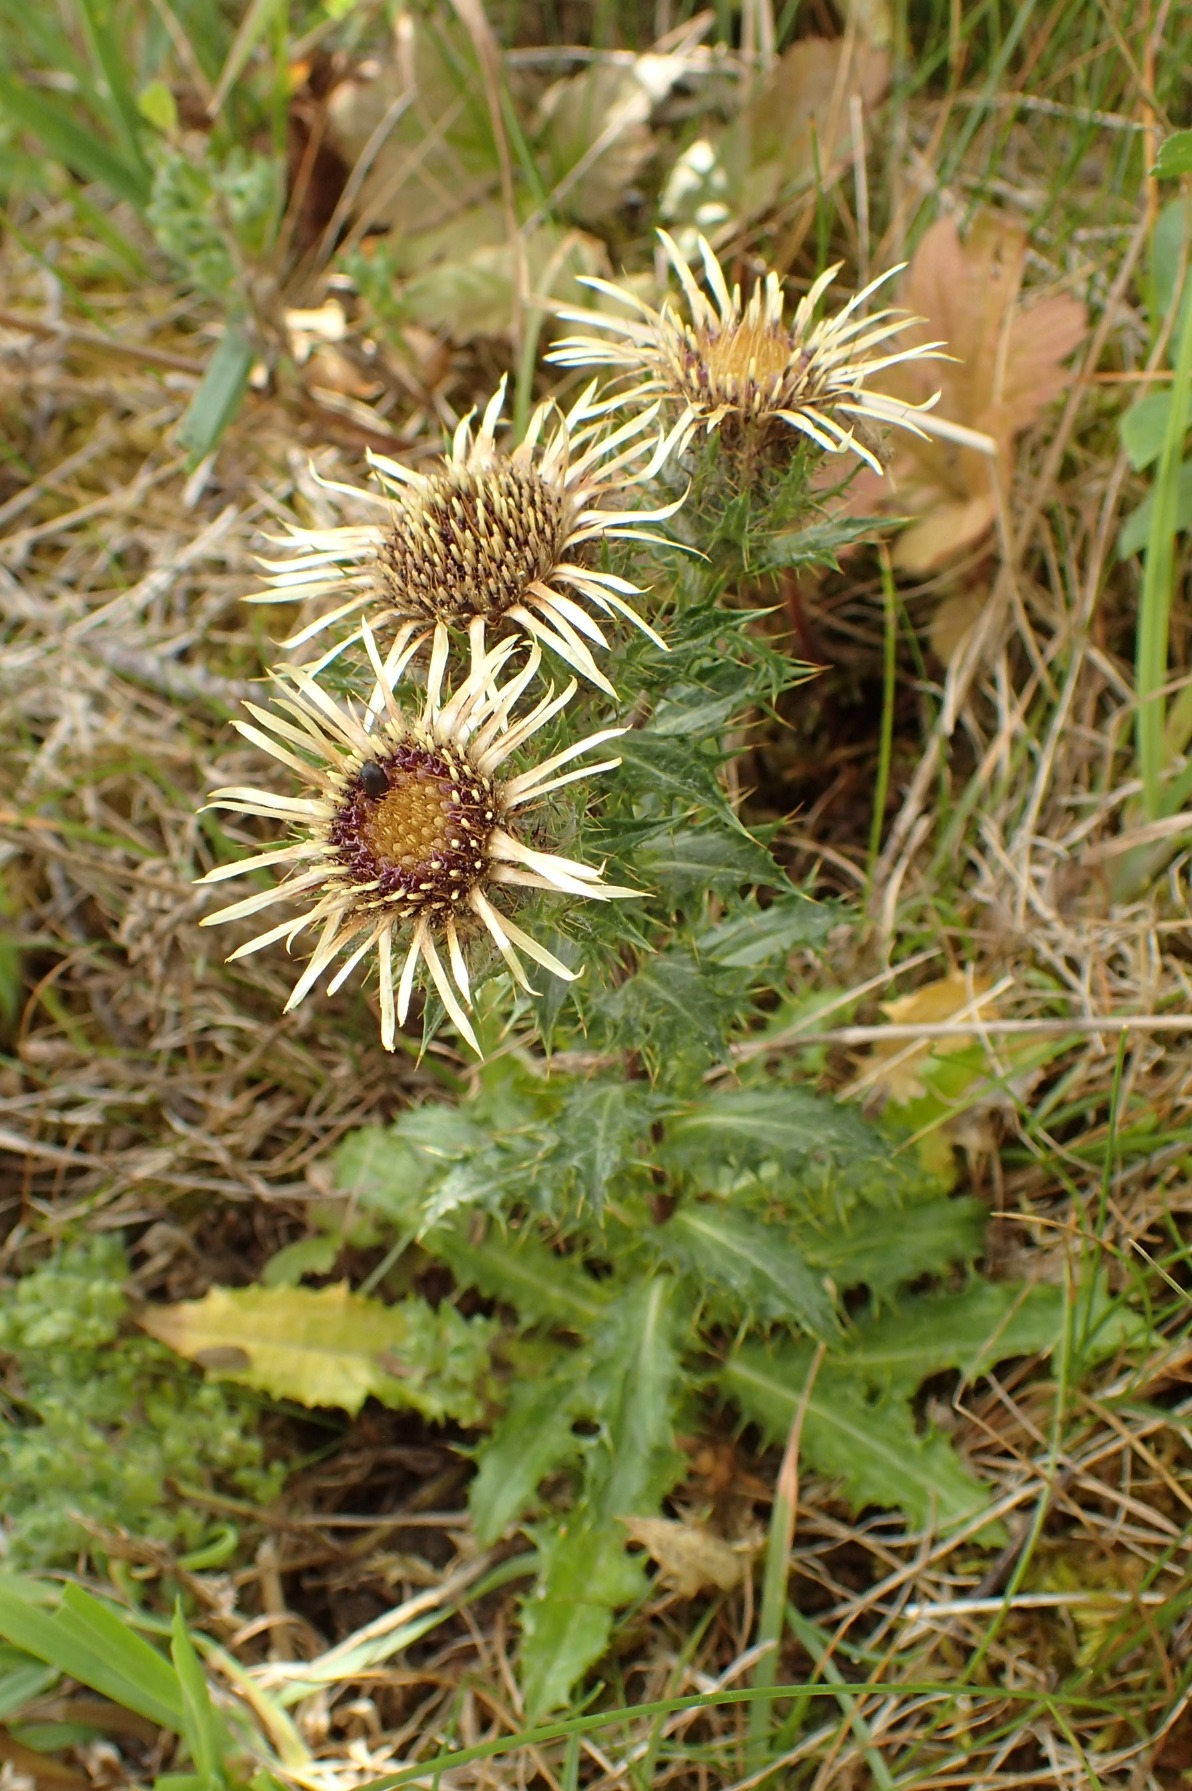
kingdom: Plantae
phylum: Tracheophyta
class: Magnoliopsida
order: Asterales
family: Asteraceae
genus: Carlina
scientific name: Carlina vulgaris
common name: Bakketidsel
